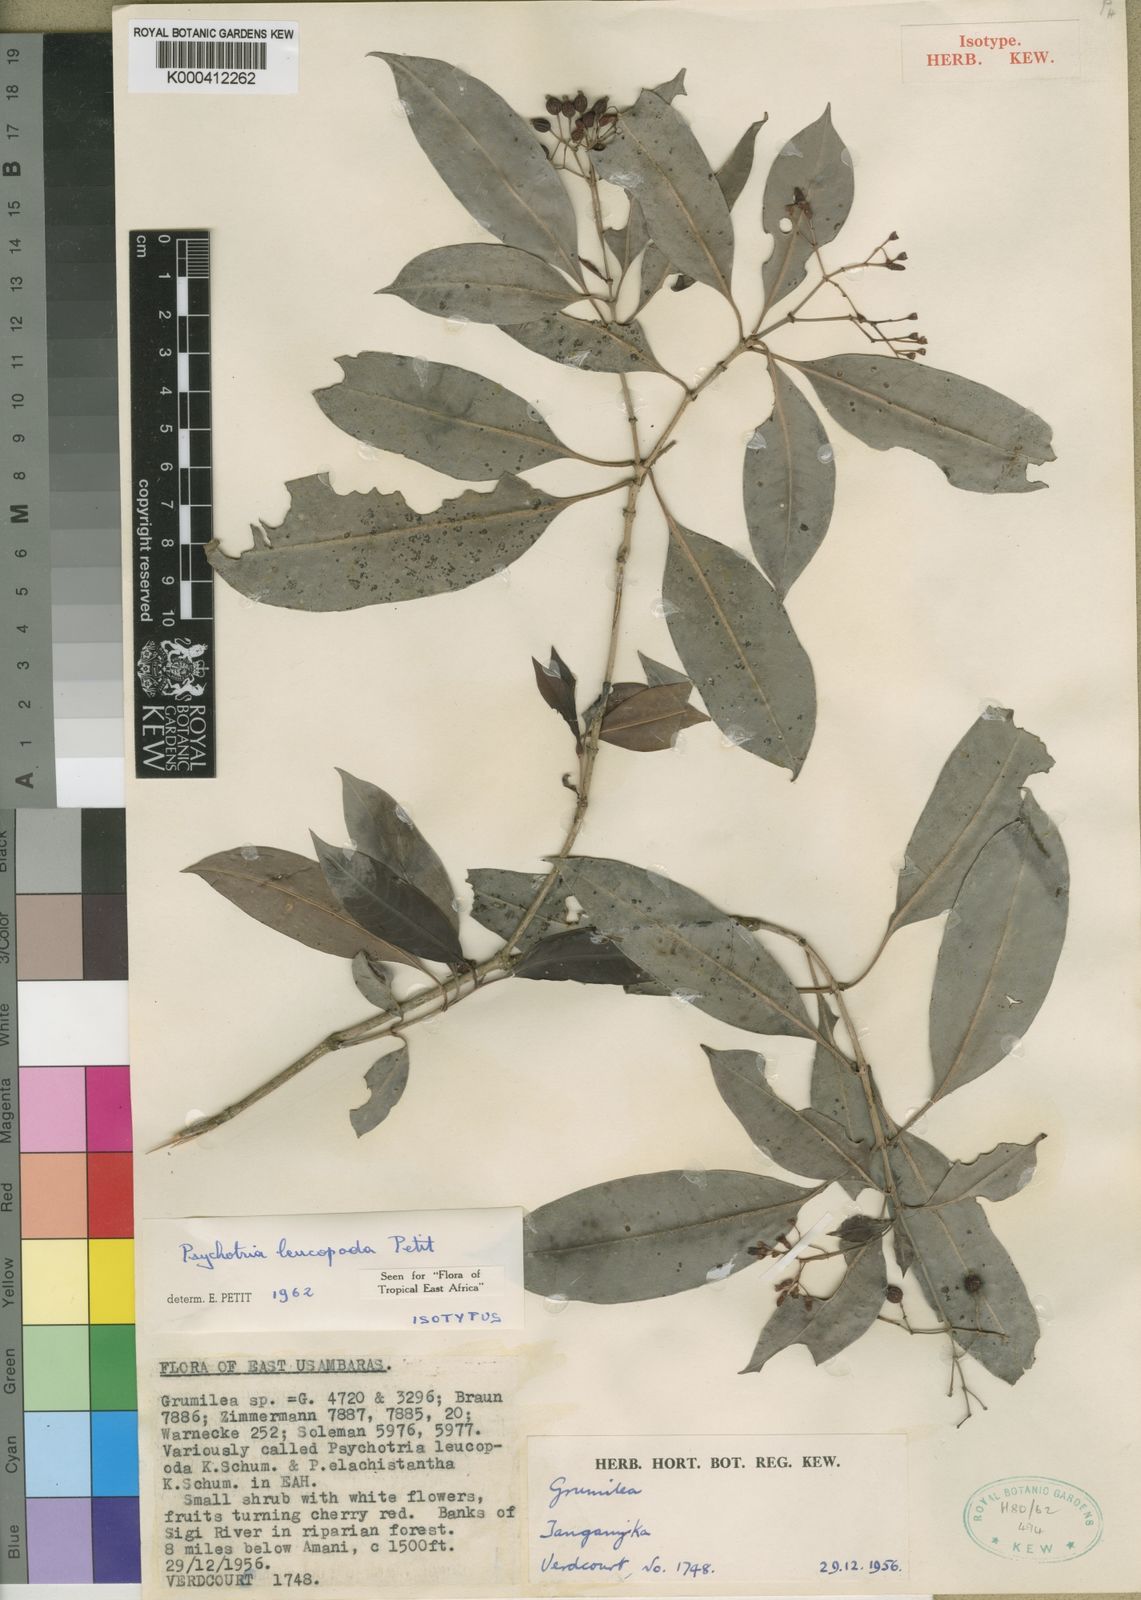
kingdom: Plantae
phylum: Tracheophyta
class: Magnoliopsida
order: Gentianales
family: Rubiaceae
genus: Psychotria
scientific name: Psychotria leucopoda
